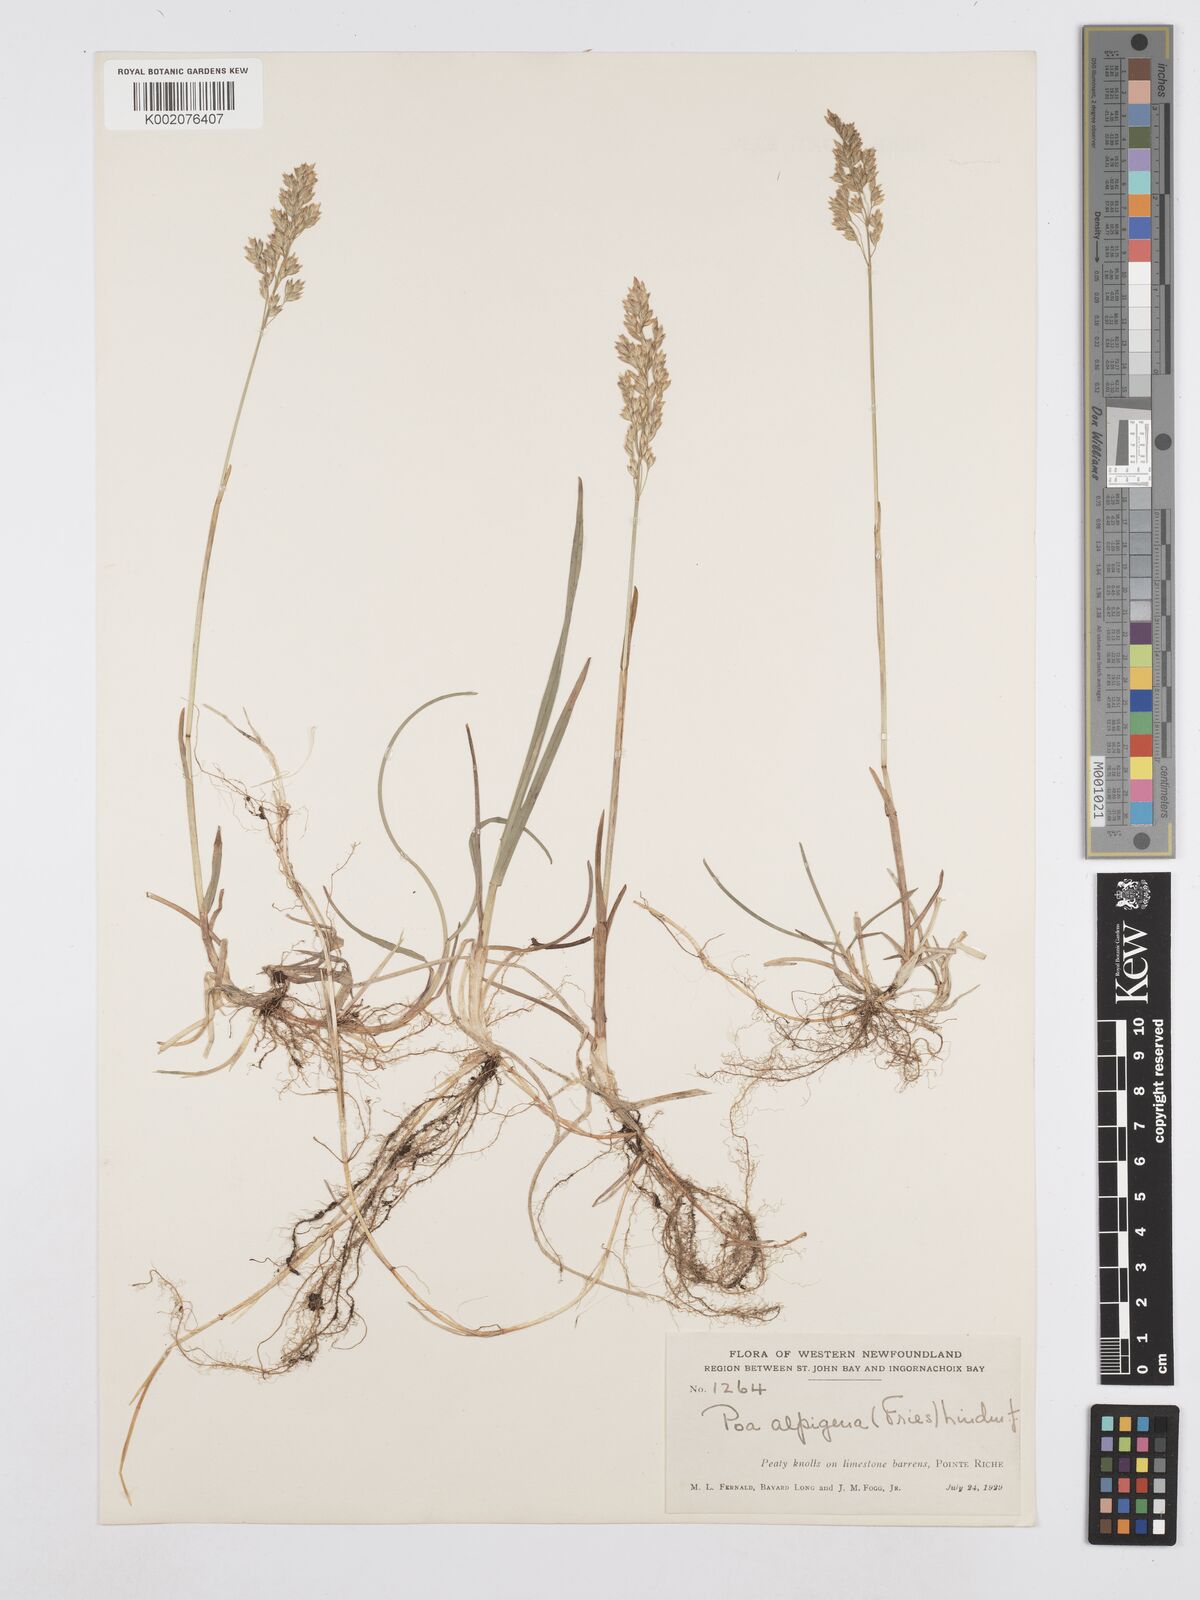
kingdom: Plantae
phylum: Tracheophyta
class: Liliopsida
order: Poales
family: Poaceae
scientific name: Poaceae
